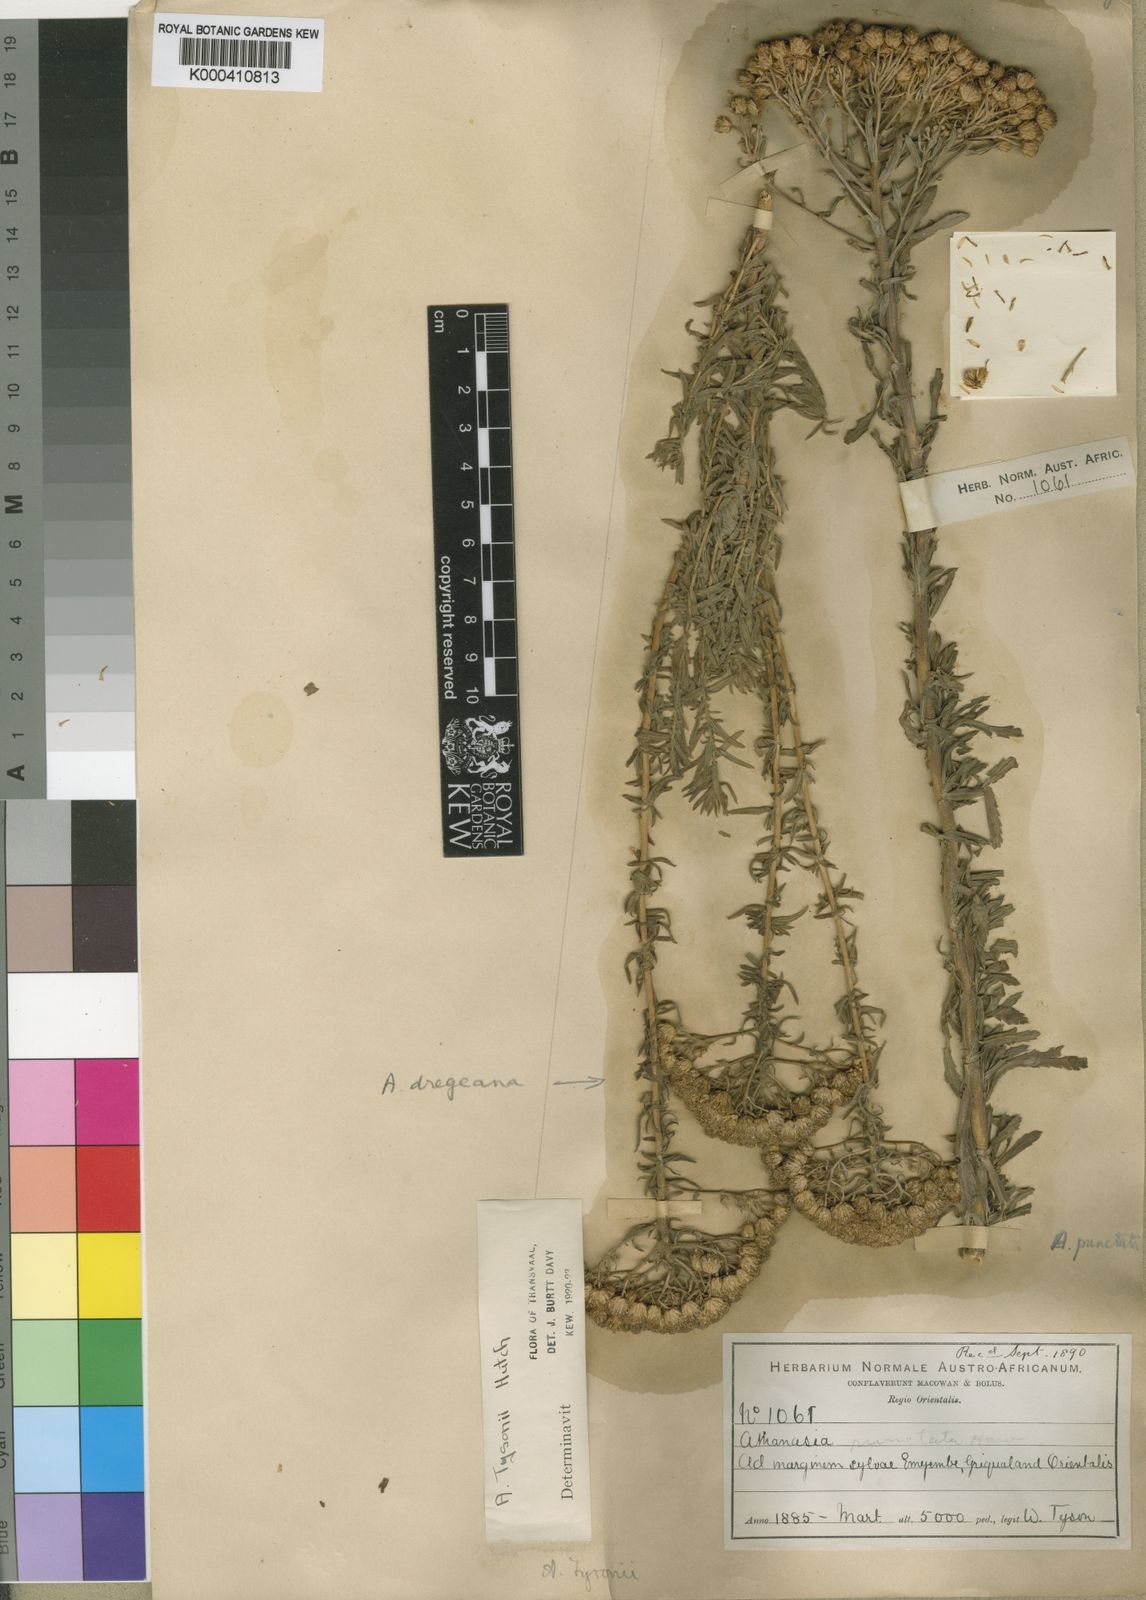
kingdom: Plantae
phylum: Tracheophyta
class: Magnoliopsida
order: Asterales
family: Asteraceae
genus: Inulanthera
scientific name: Inulanthera
